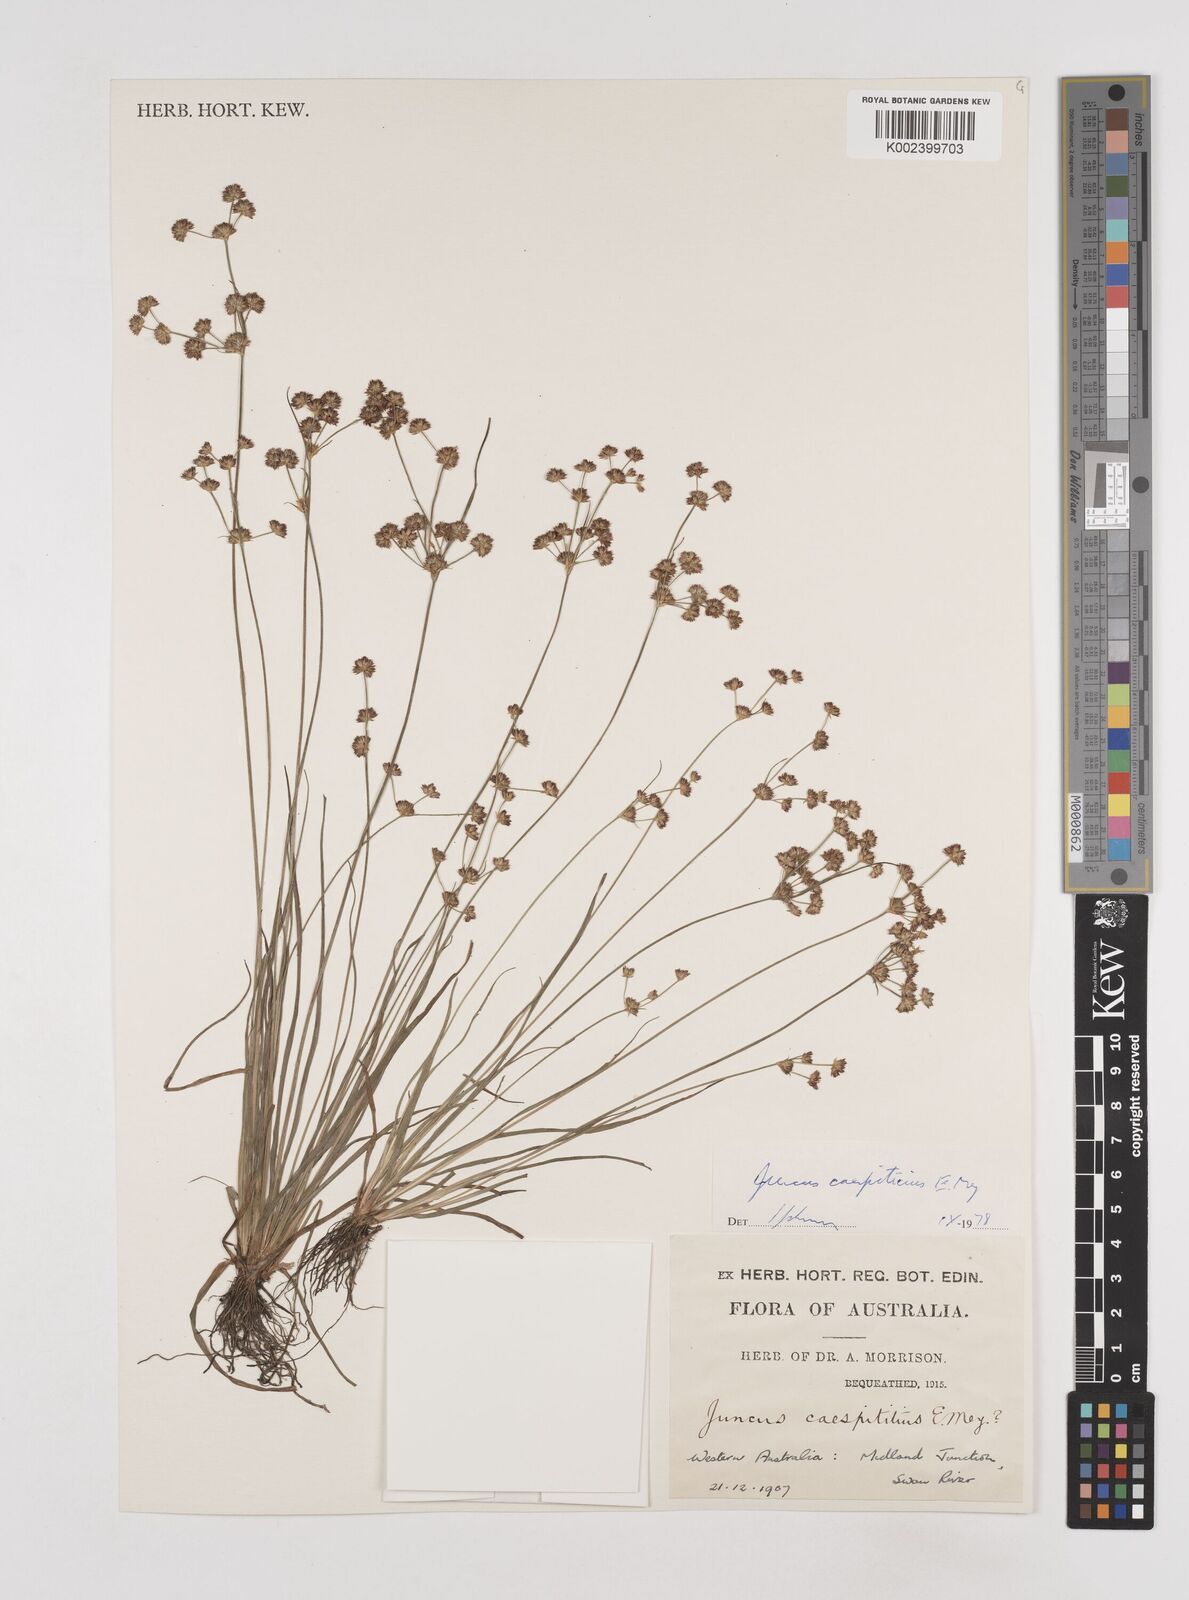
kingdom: Plantae
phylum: Tracheophyta
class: Liliopsida
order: Poales
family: Juncaceae
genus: Juncus
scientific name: Juncus caespiticius
